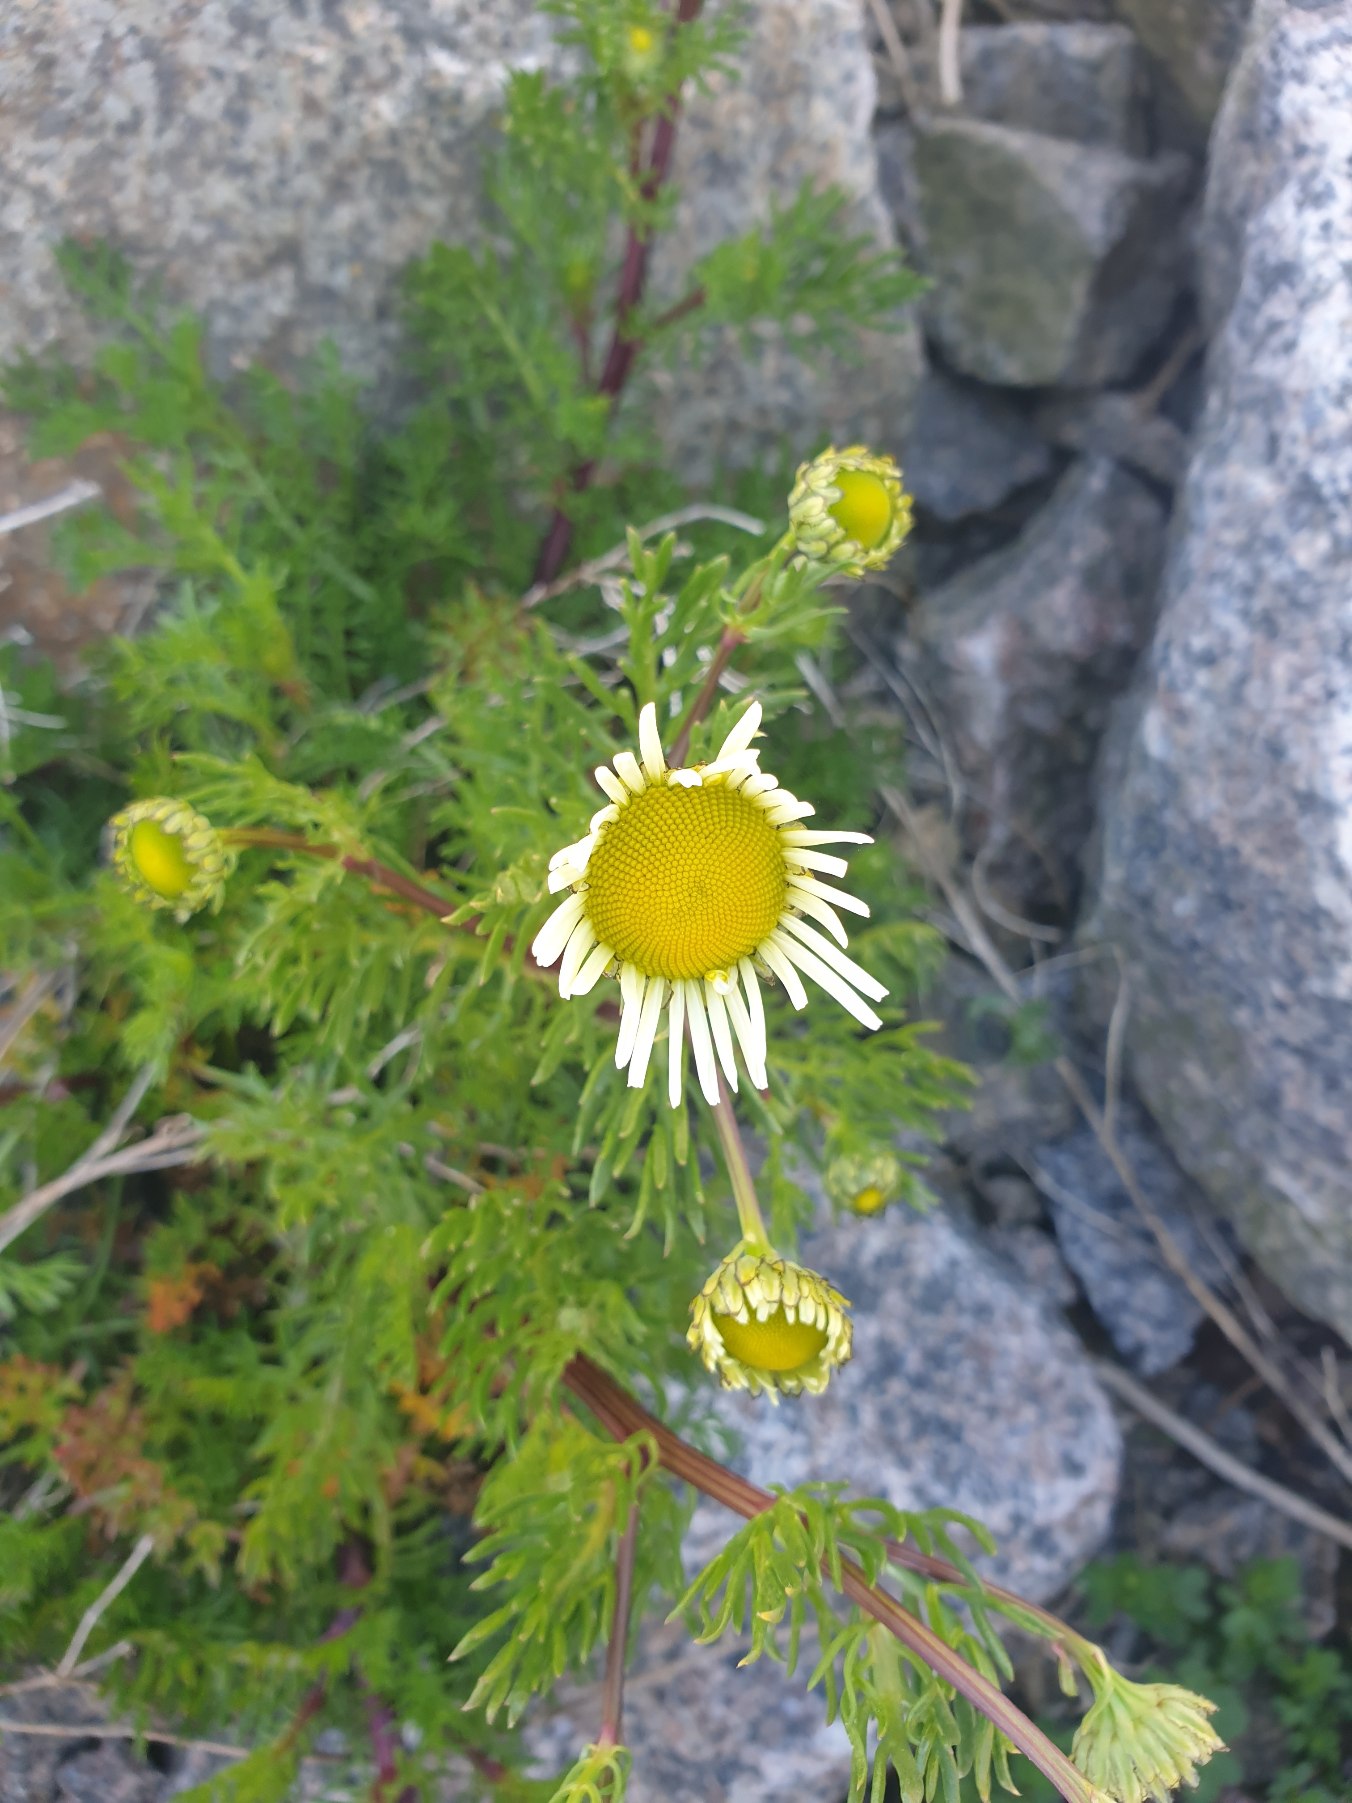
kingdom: Plantae
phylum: Tracheophyta
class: Magnoliopsida
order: Asterales
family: Asteraceae
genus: Tripleurospermum
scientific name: Tripleurospermum maritimum
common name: Strand-kamille
